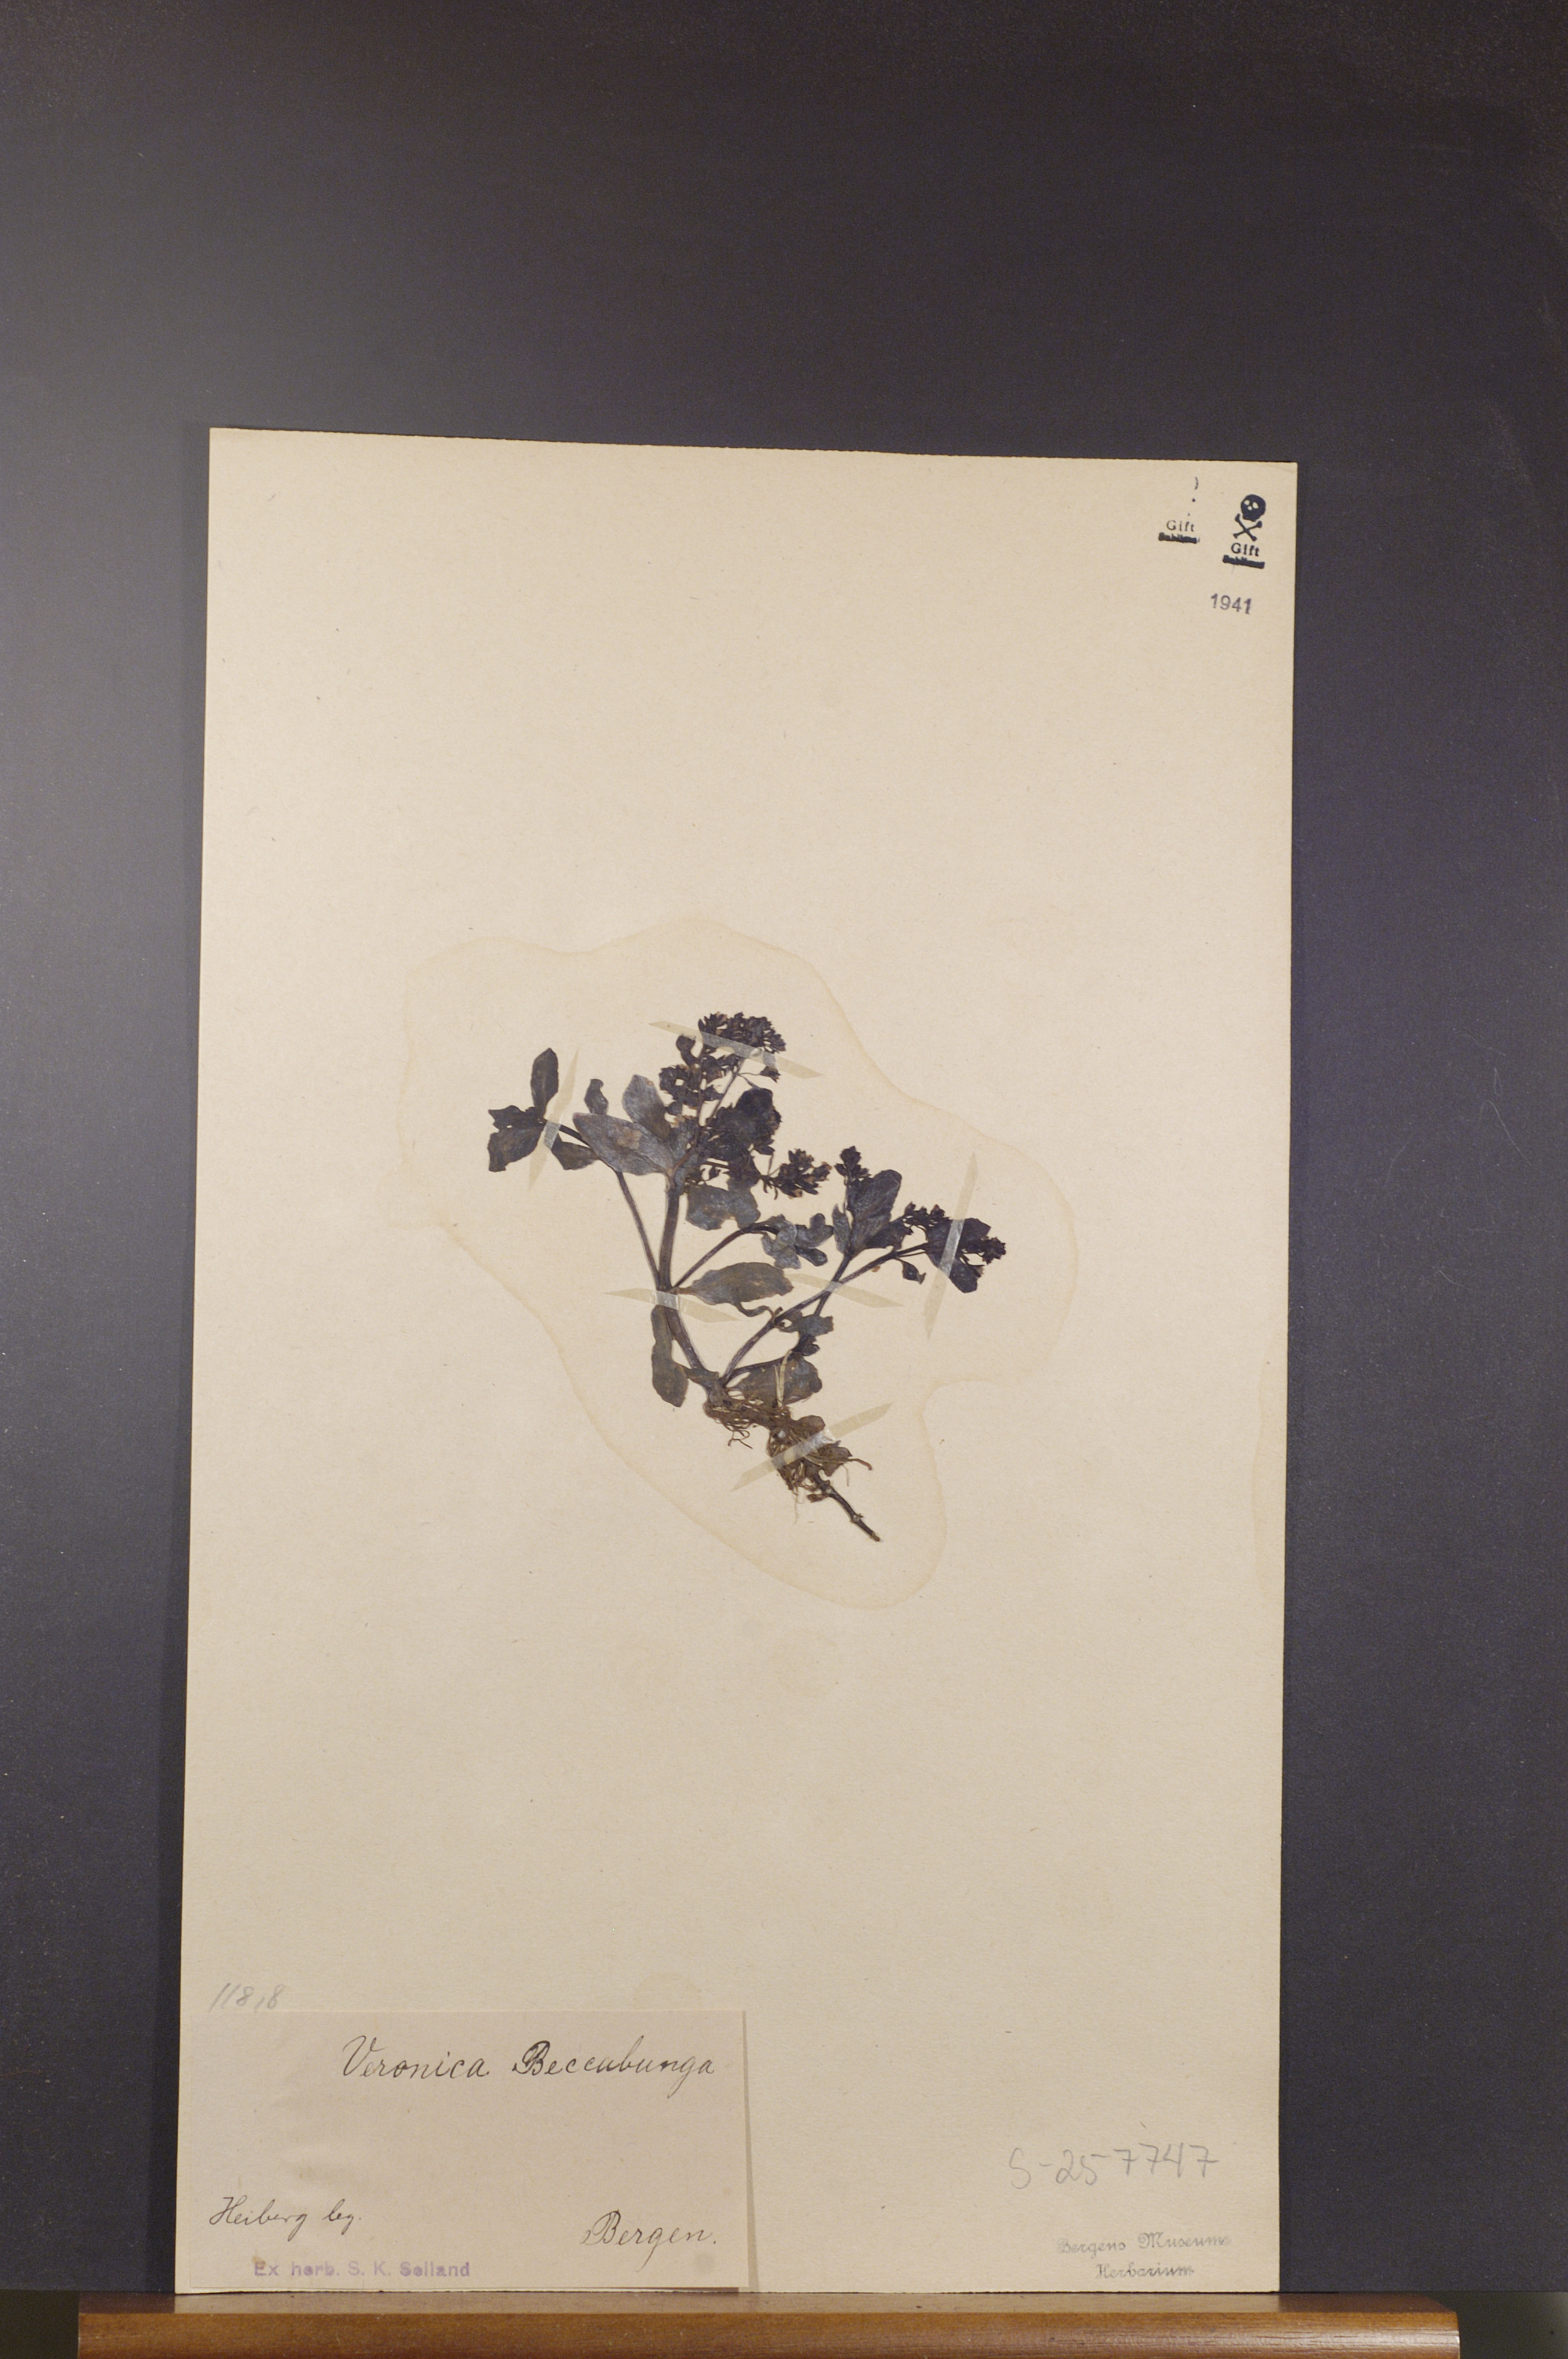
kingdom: Plantae
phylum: Tracheophyta
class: Magnoliopsida
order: Lamiales
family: Plantaginaceae
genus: Veronica
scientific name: Veronica beccabunga
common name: Brooklime
